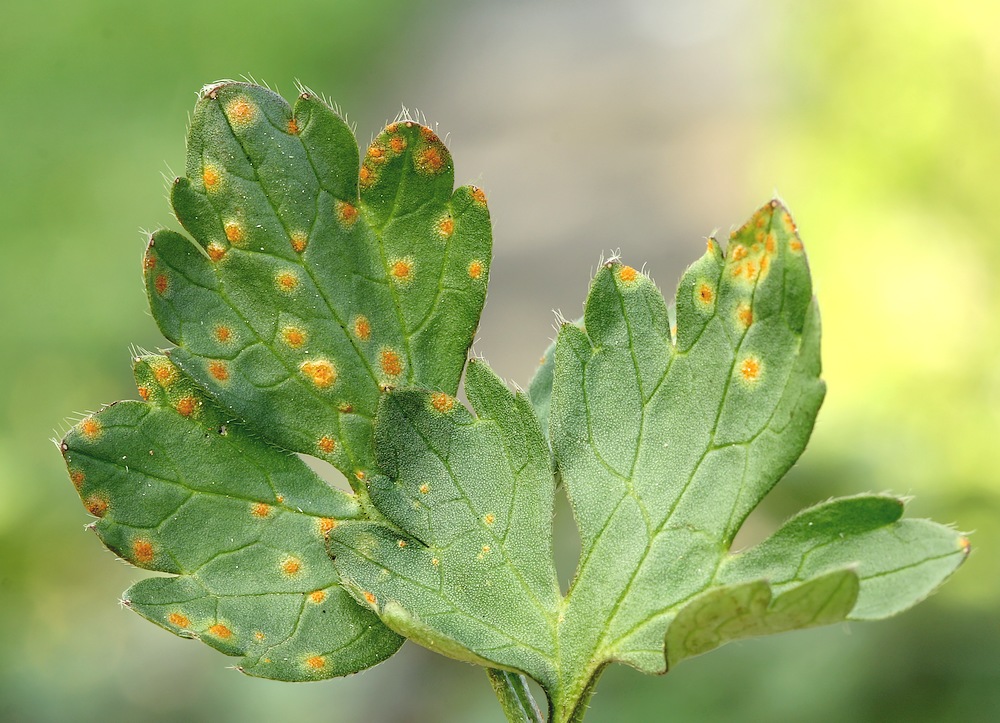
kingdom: Fungi
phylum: Basidiomycota
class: Pucciniomycetes
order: Pucciniales
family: Pucciniaceae
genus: Puccinia
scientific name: Puccinia recondita
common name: Brown rust of wheat
